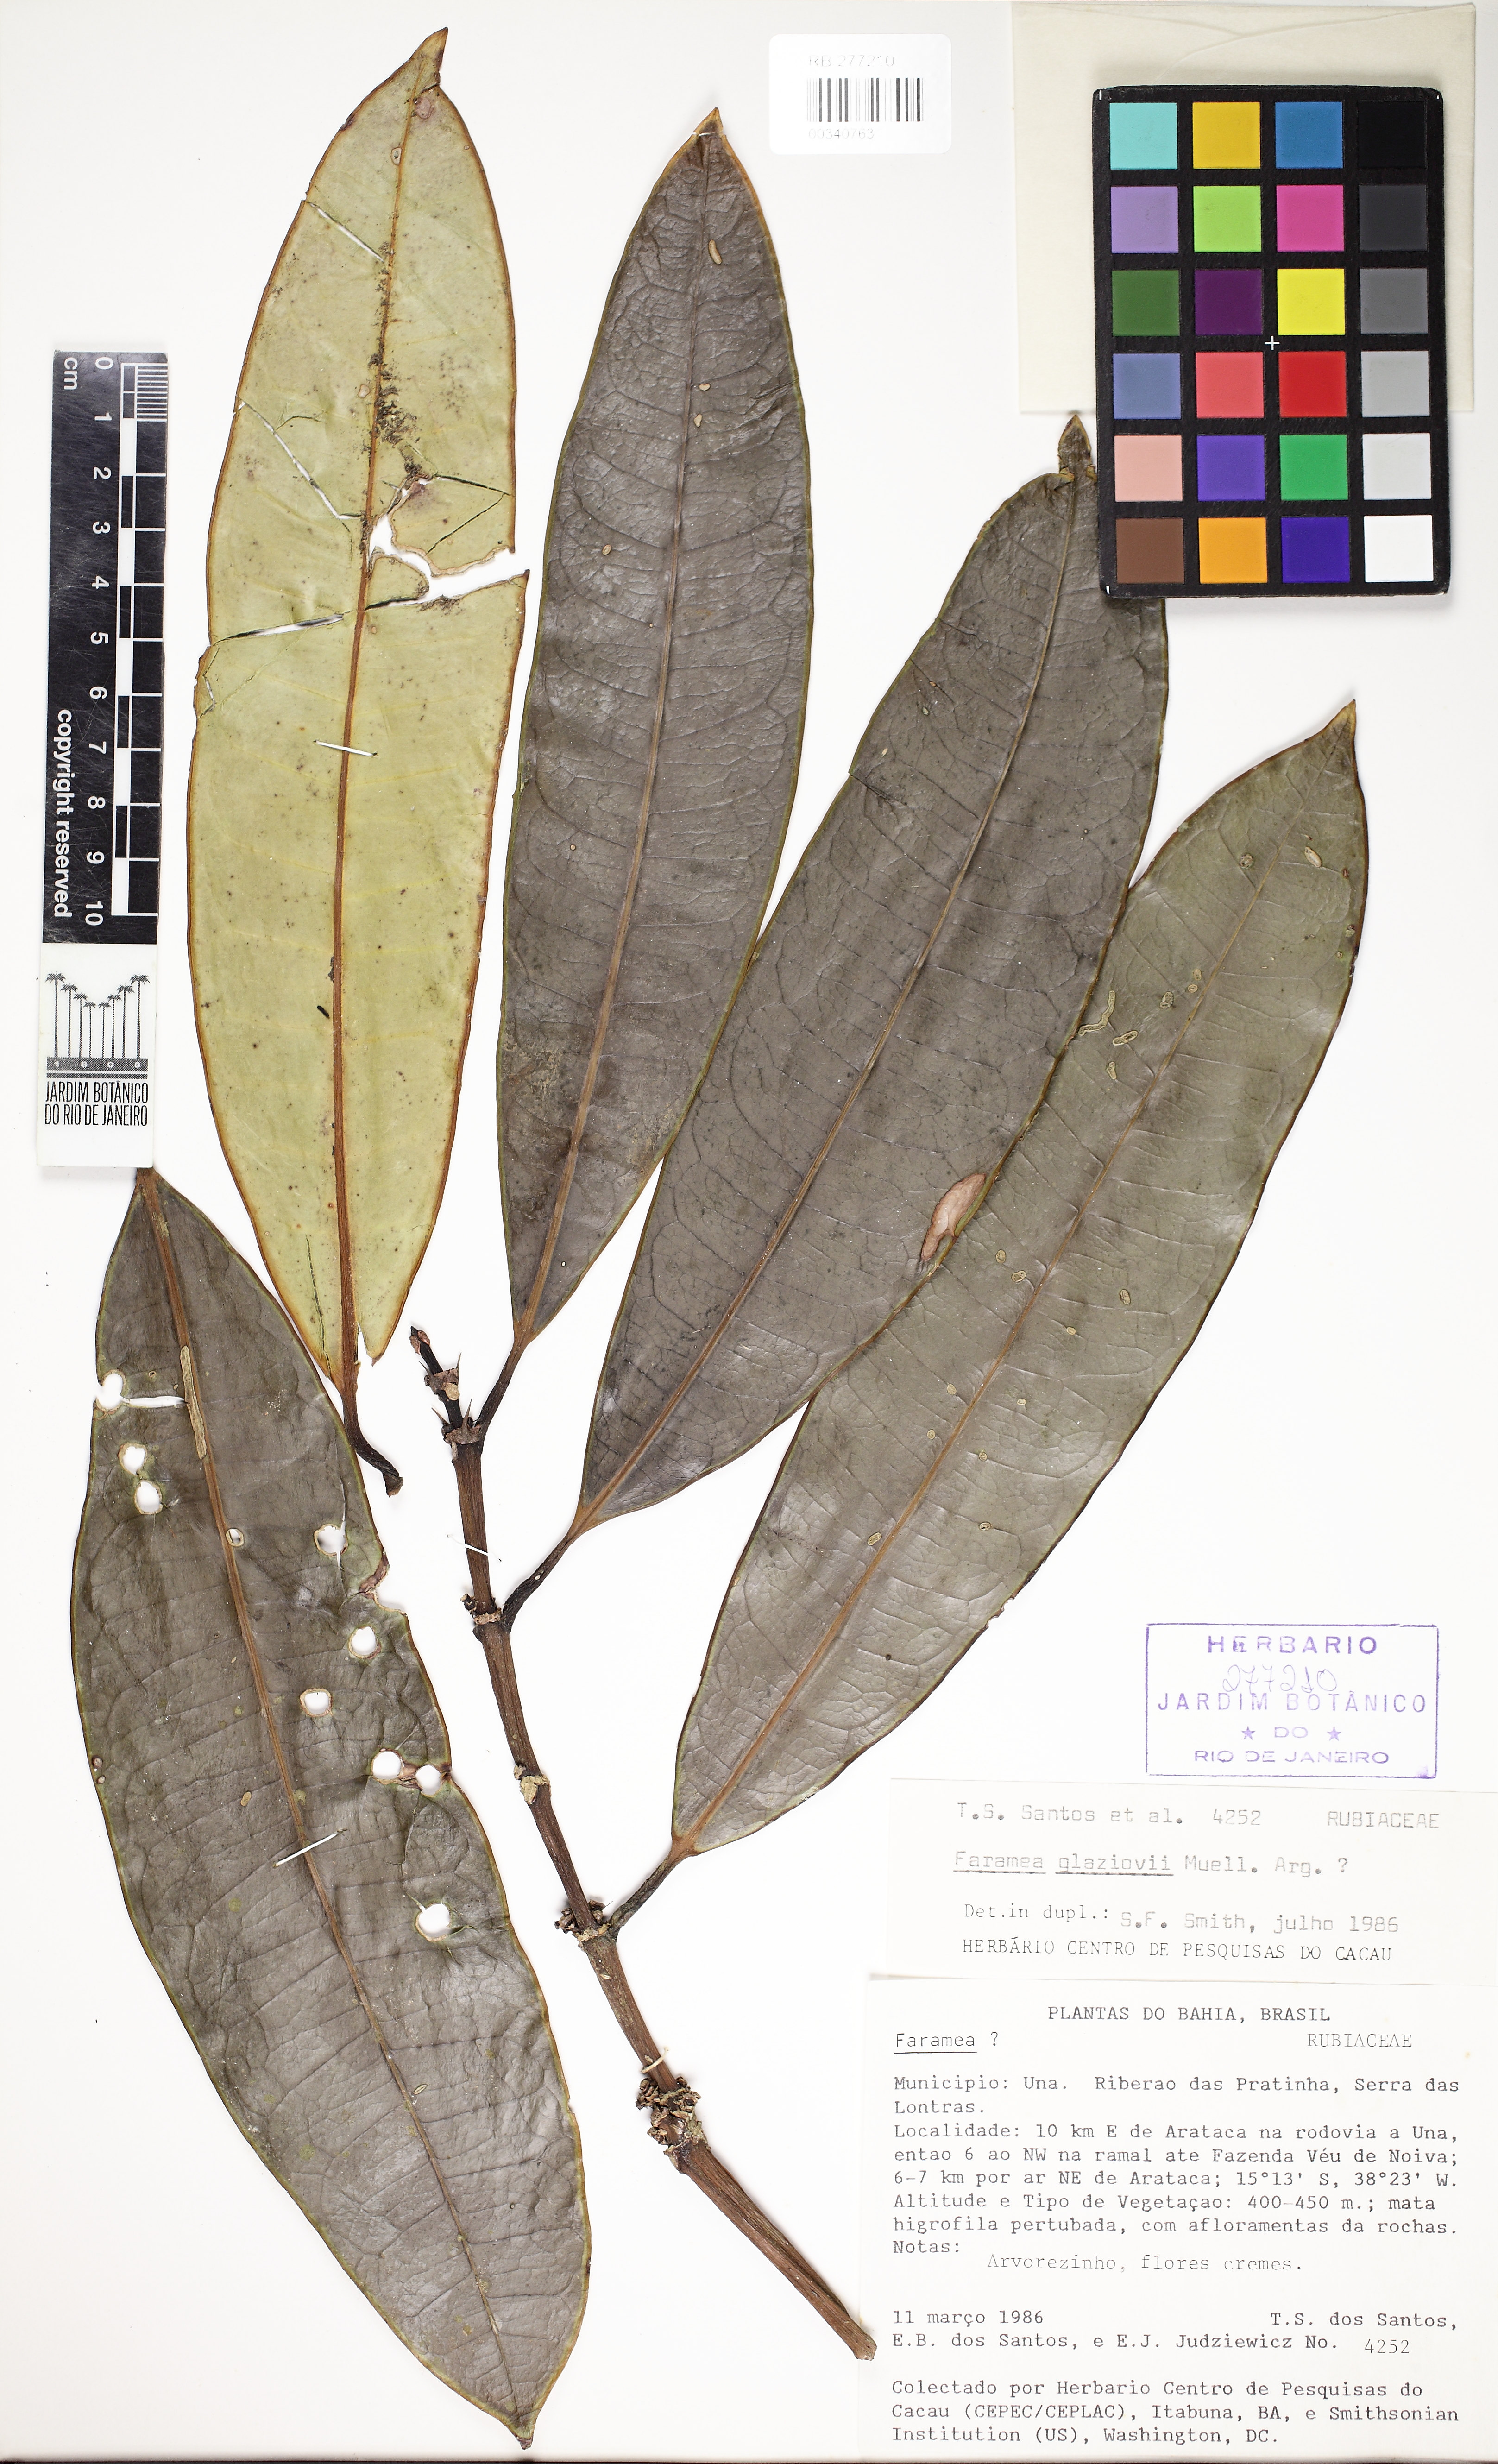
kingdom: Plantae
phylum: Tracheophyta
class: Magnoliopsida
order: Gentianales
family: Rubiaceae
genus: Faramea
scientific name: Faramea glaziovii
